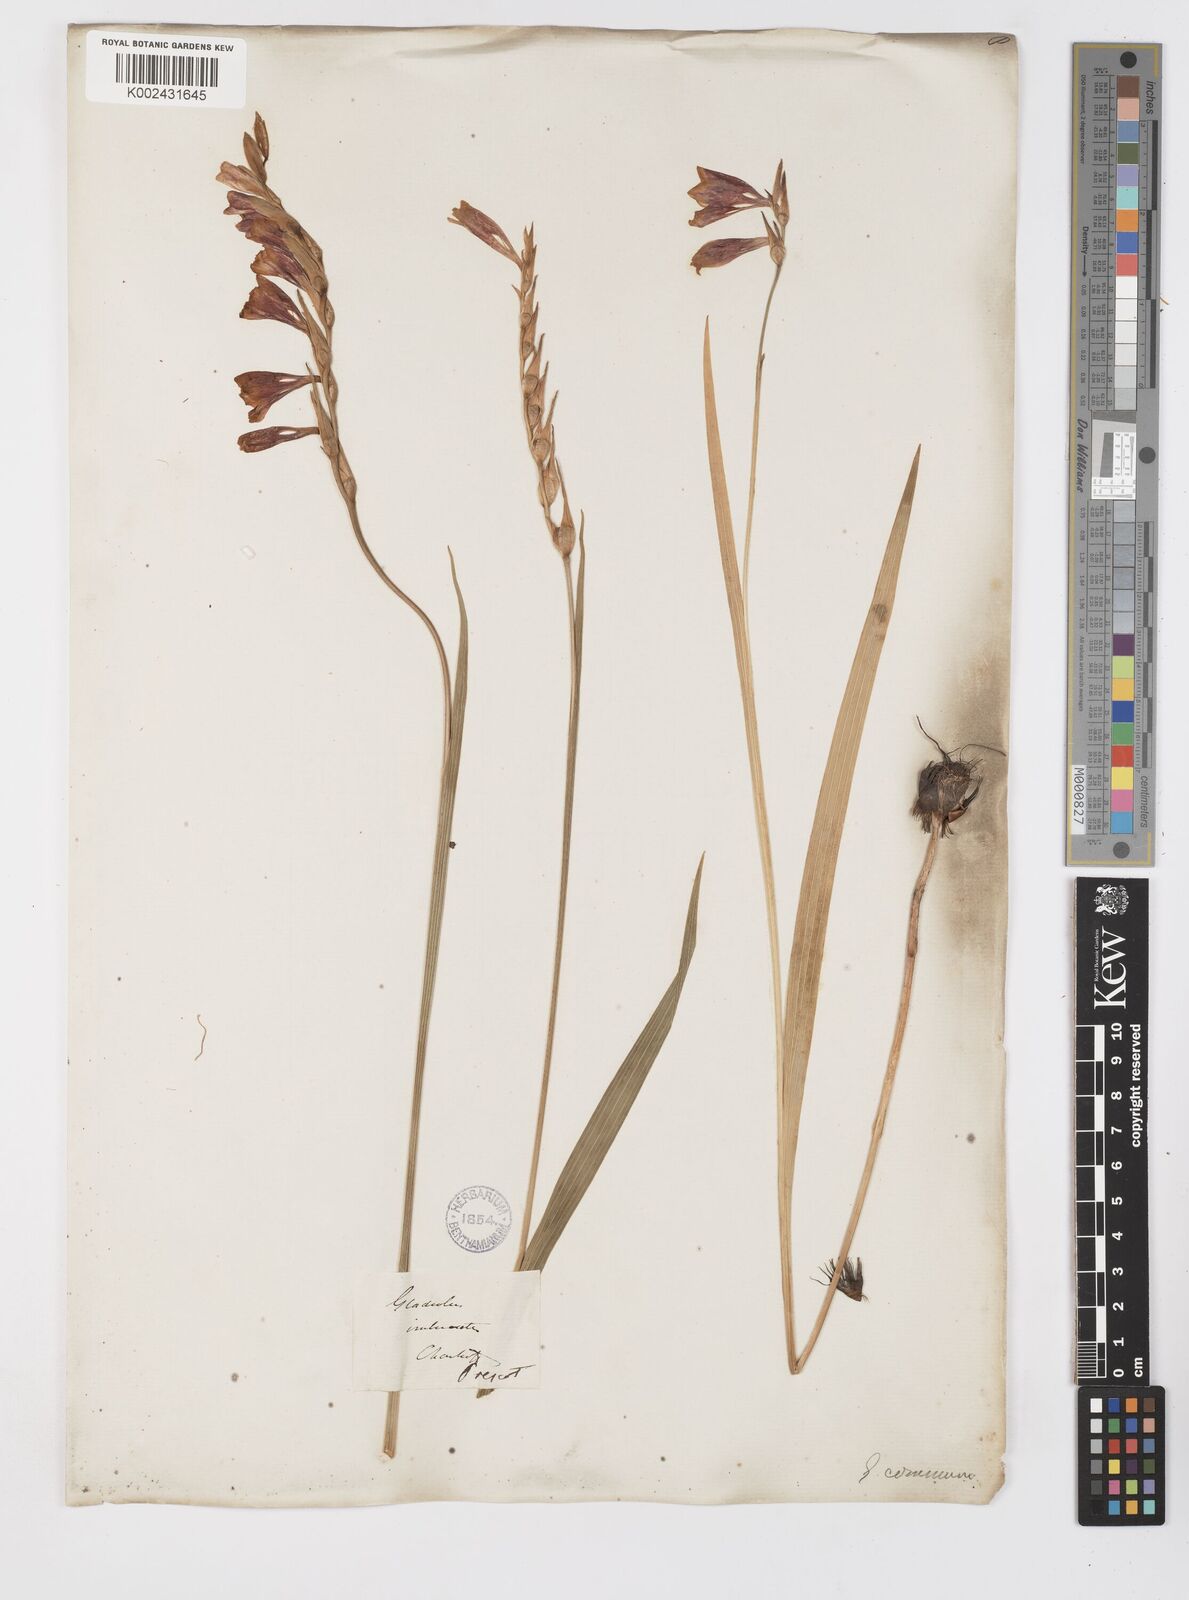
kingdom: Plantae
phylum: Tracheophyta
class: Liliopsida
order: Asparagales
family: Iridaceae
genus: Gladiolus
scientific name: Gladiolus imbricatus
